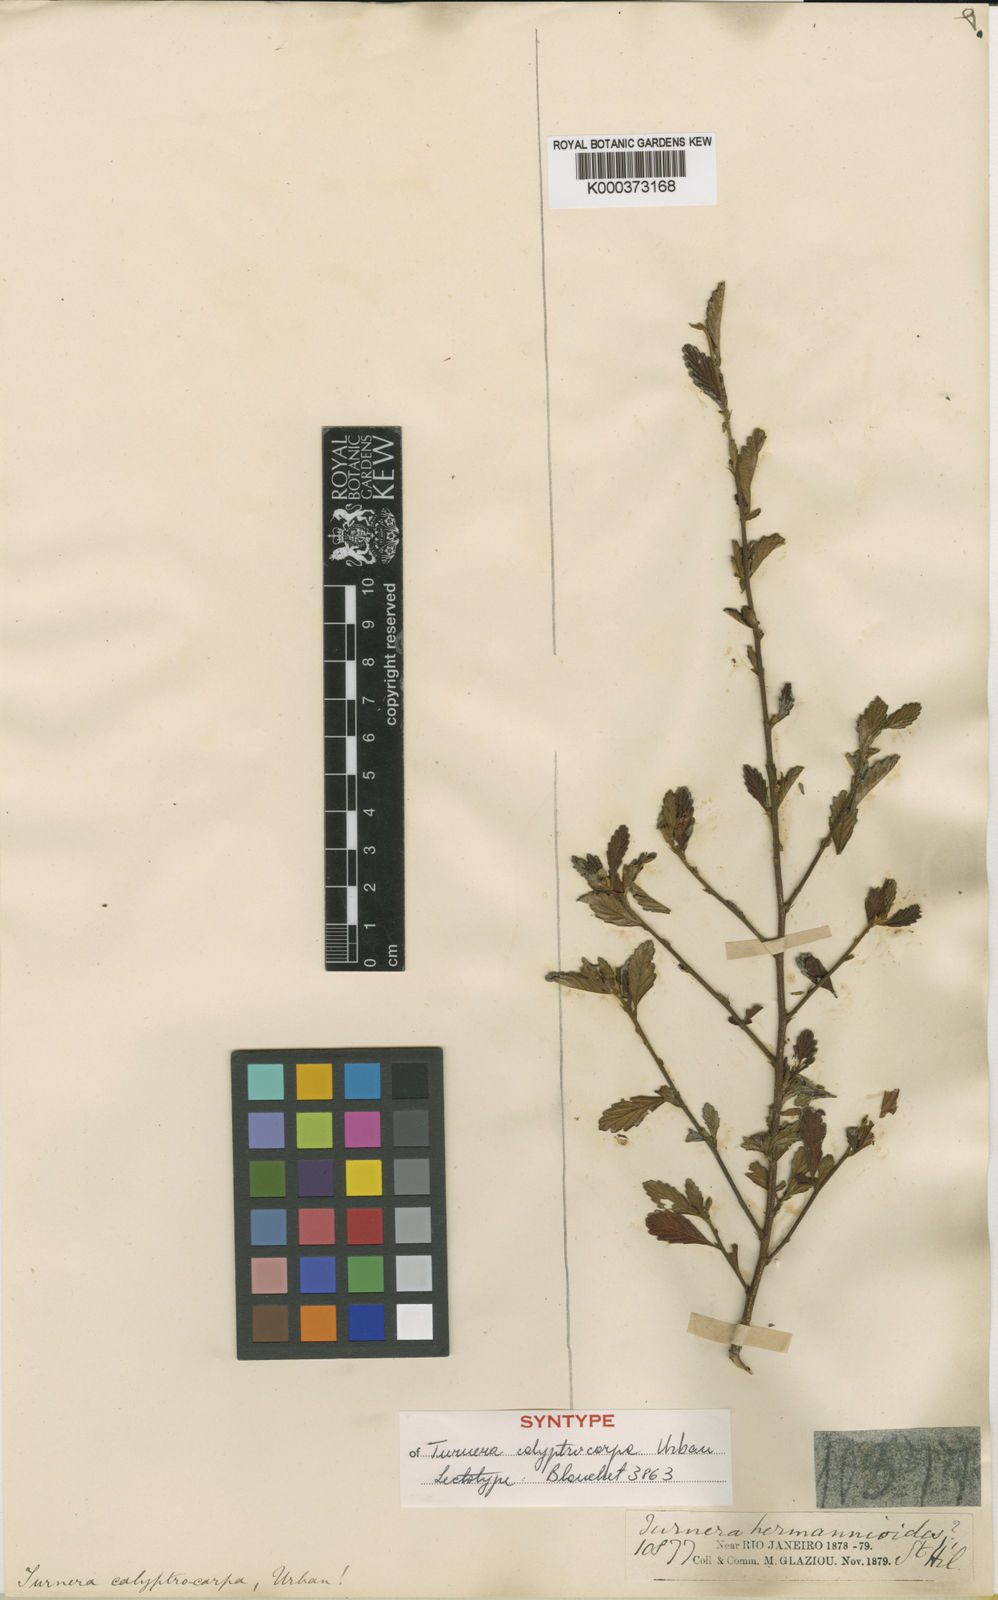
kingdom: Plantae
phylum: Tracheophyta
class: Magnoliopsida
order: Malpighiales
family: Turneraceae
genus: Oxossia
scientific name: Oxossia calyptrocarpa
